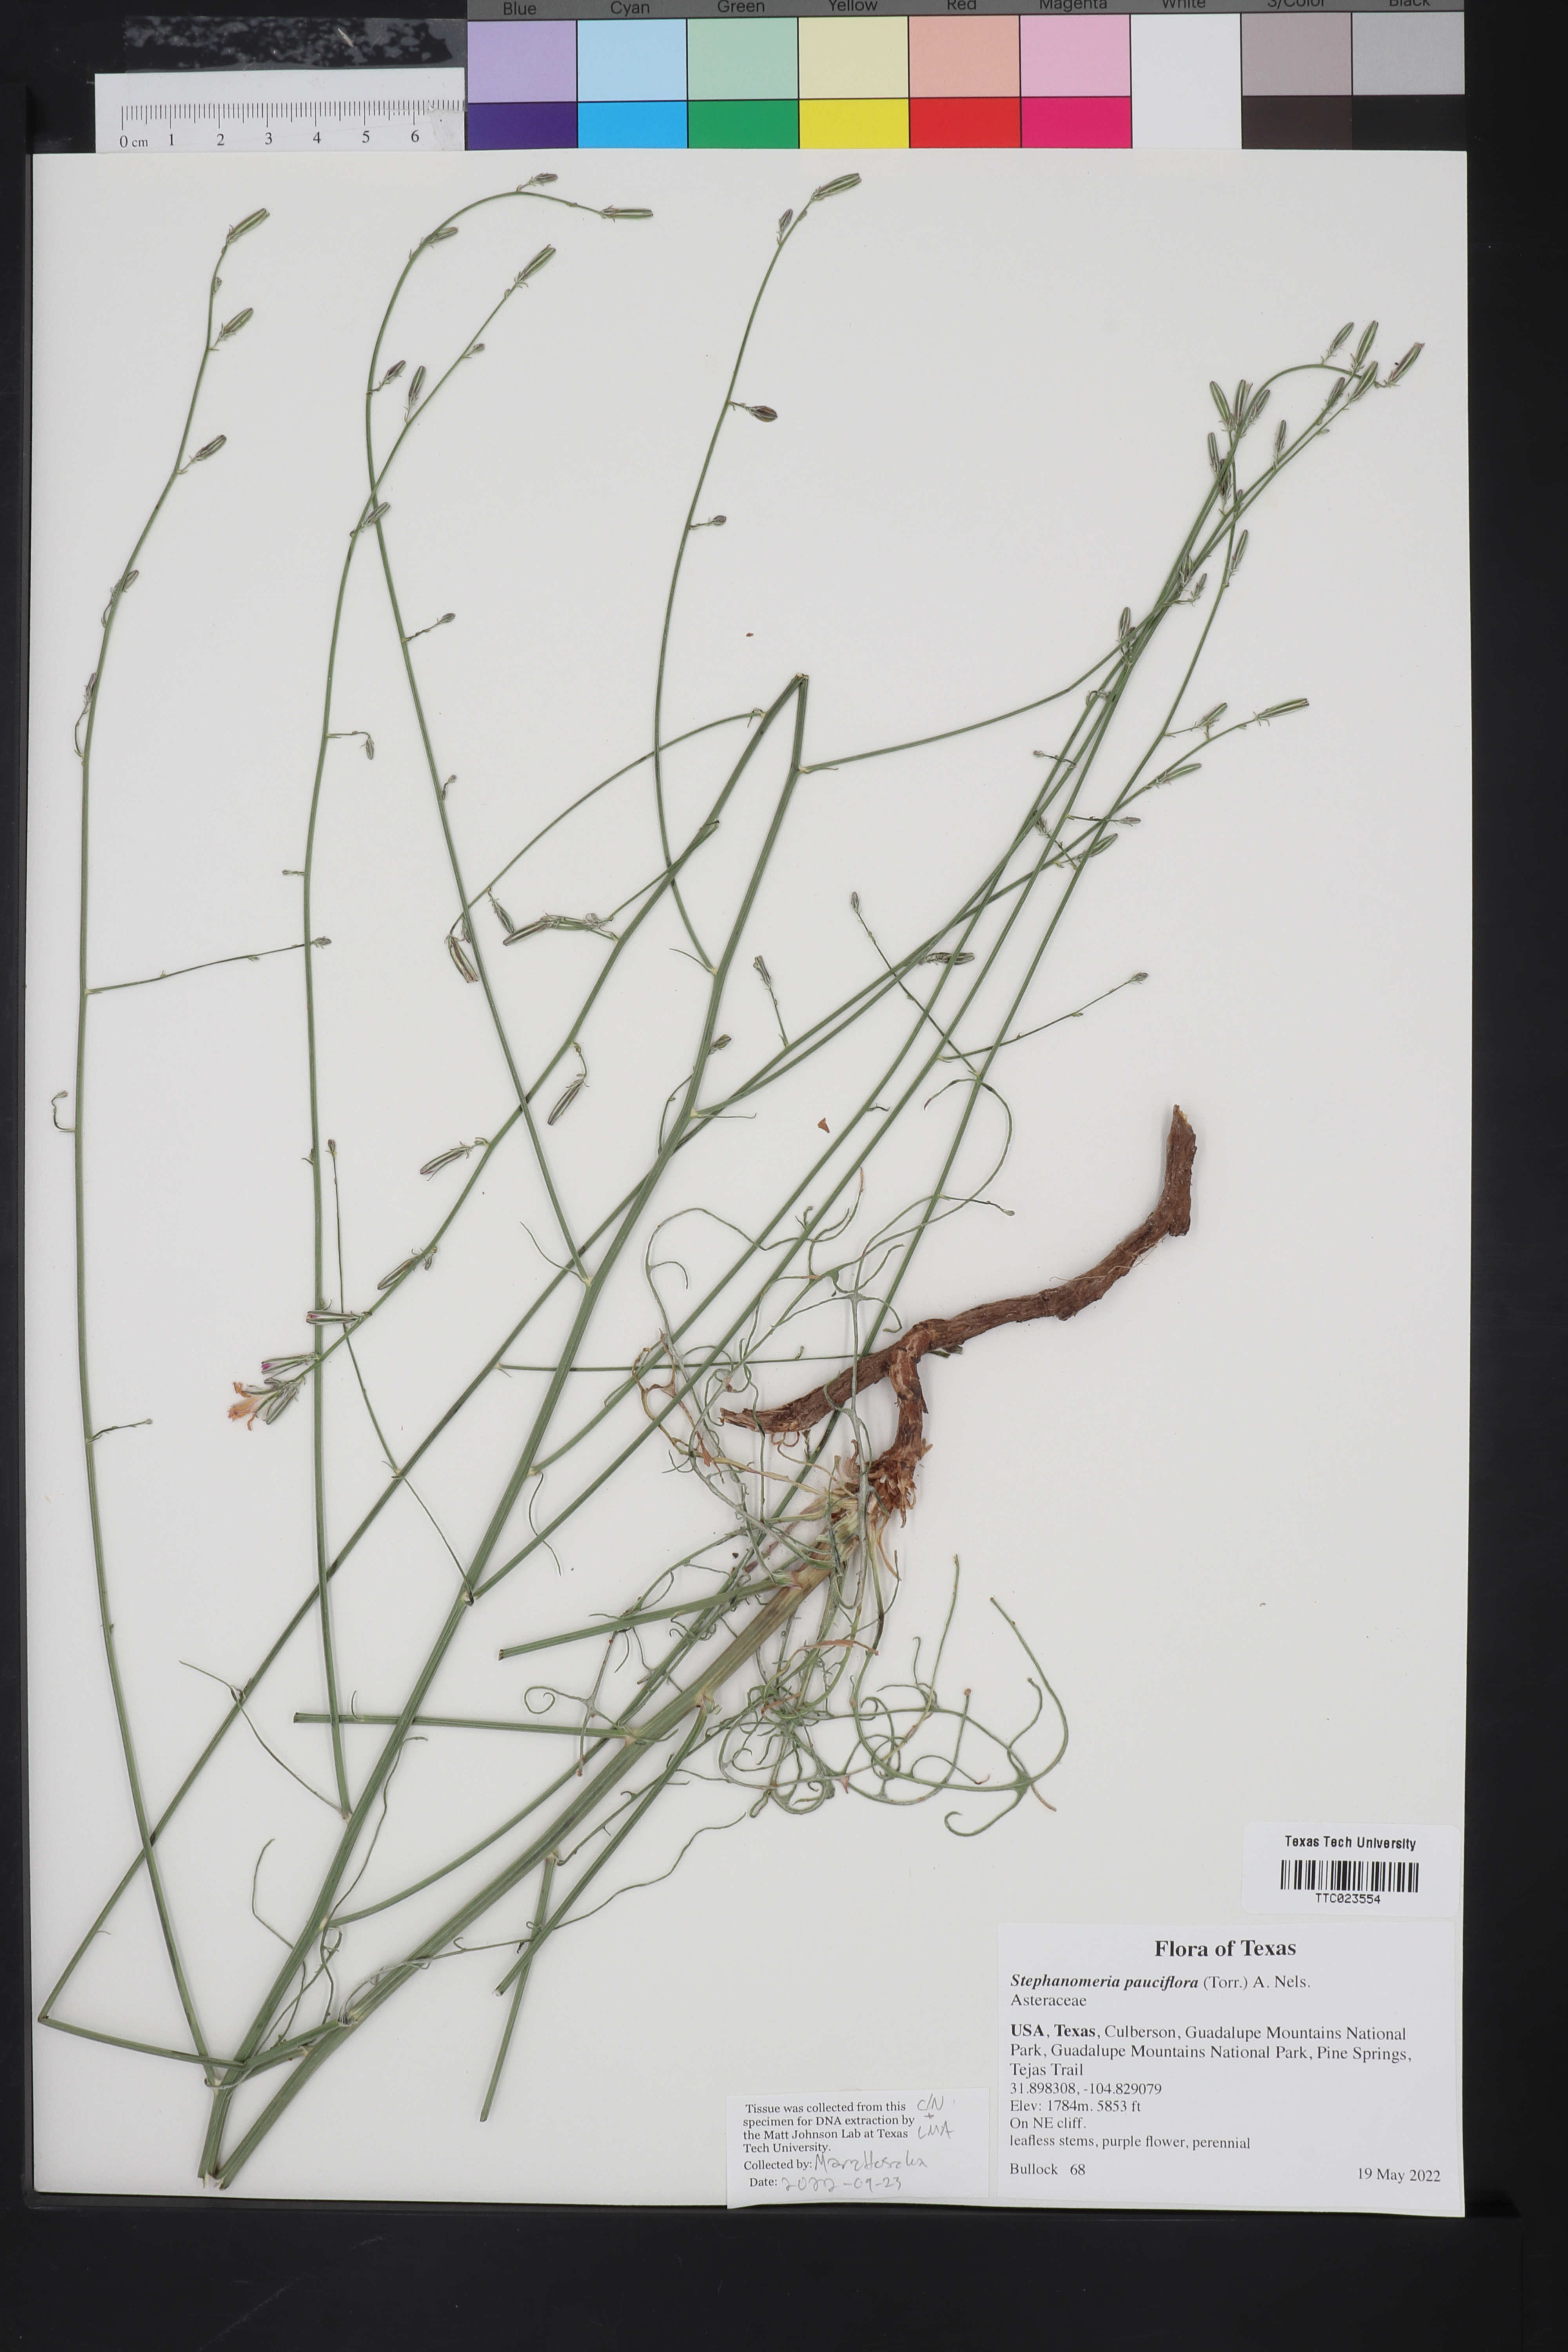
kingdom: Plantae
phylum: Tracheophyta
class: Magnoliopsida
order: Asterales
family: Asteraceae
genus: Stephanomeria
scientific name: Stephanomeria pauciflora
